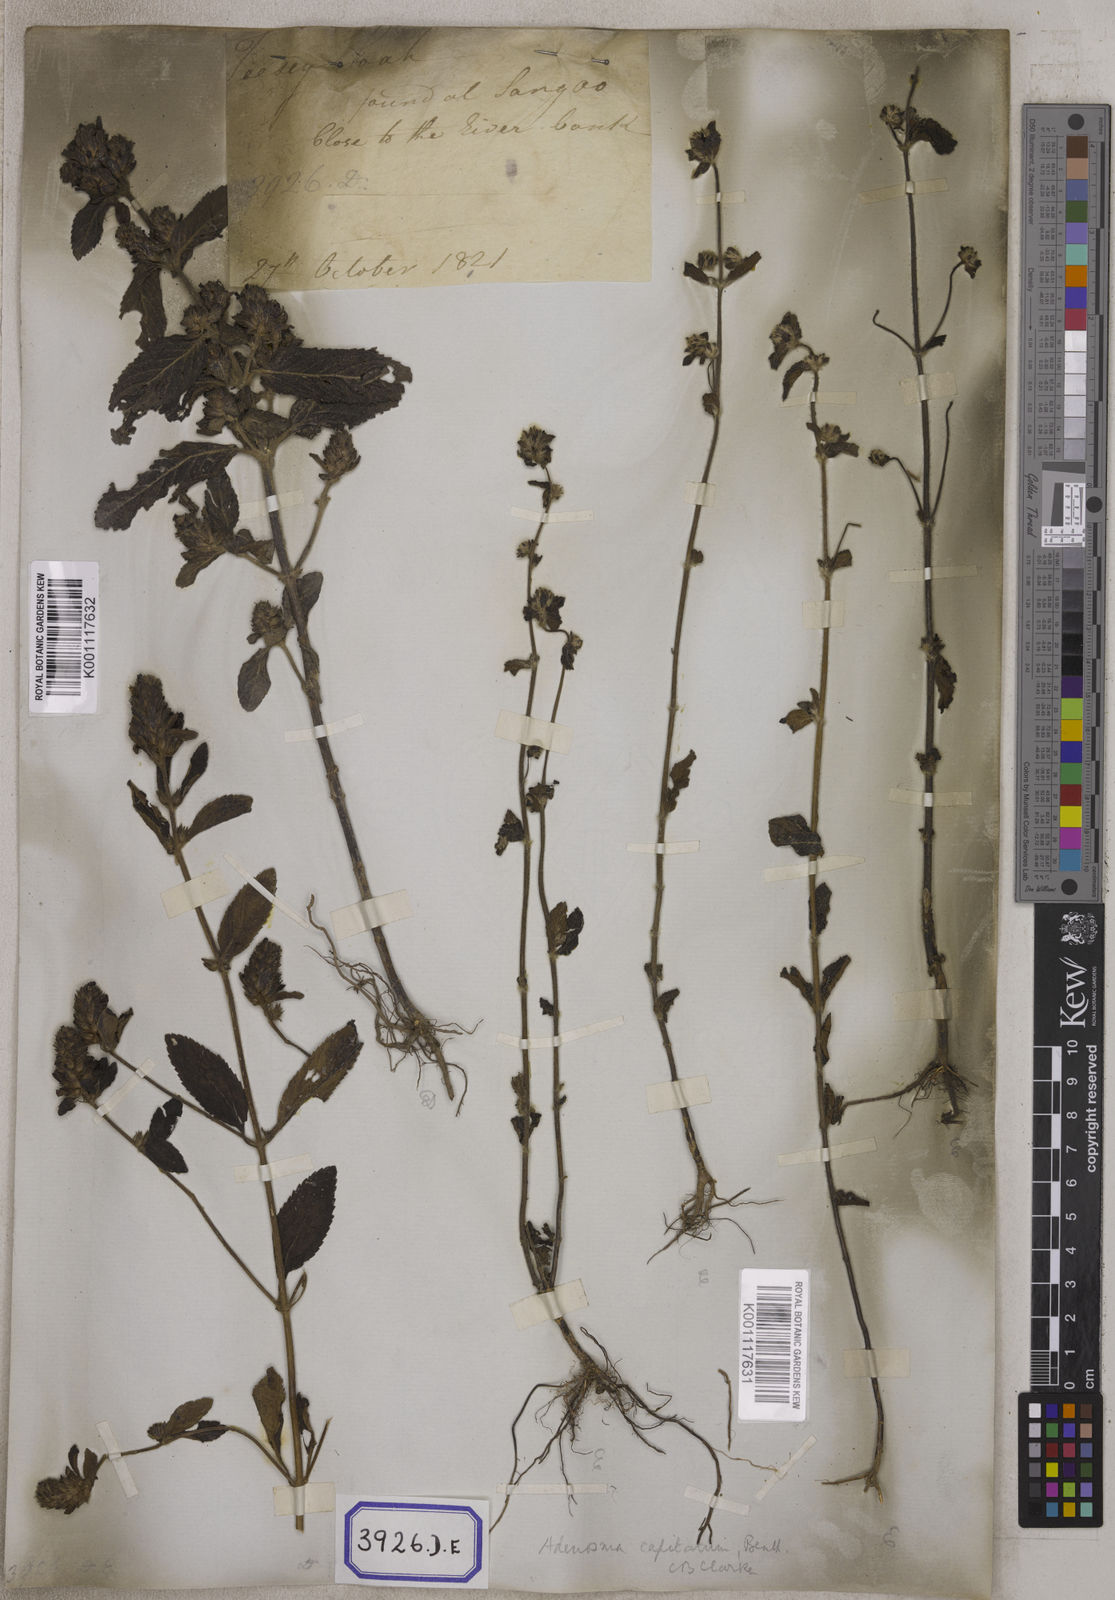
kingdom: Plantae
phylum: Tracheophyta
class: Magnoliopsida
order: Lamiales
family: Plantaginaceae
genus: Stemodia
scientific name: Stemodia
